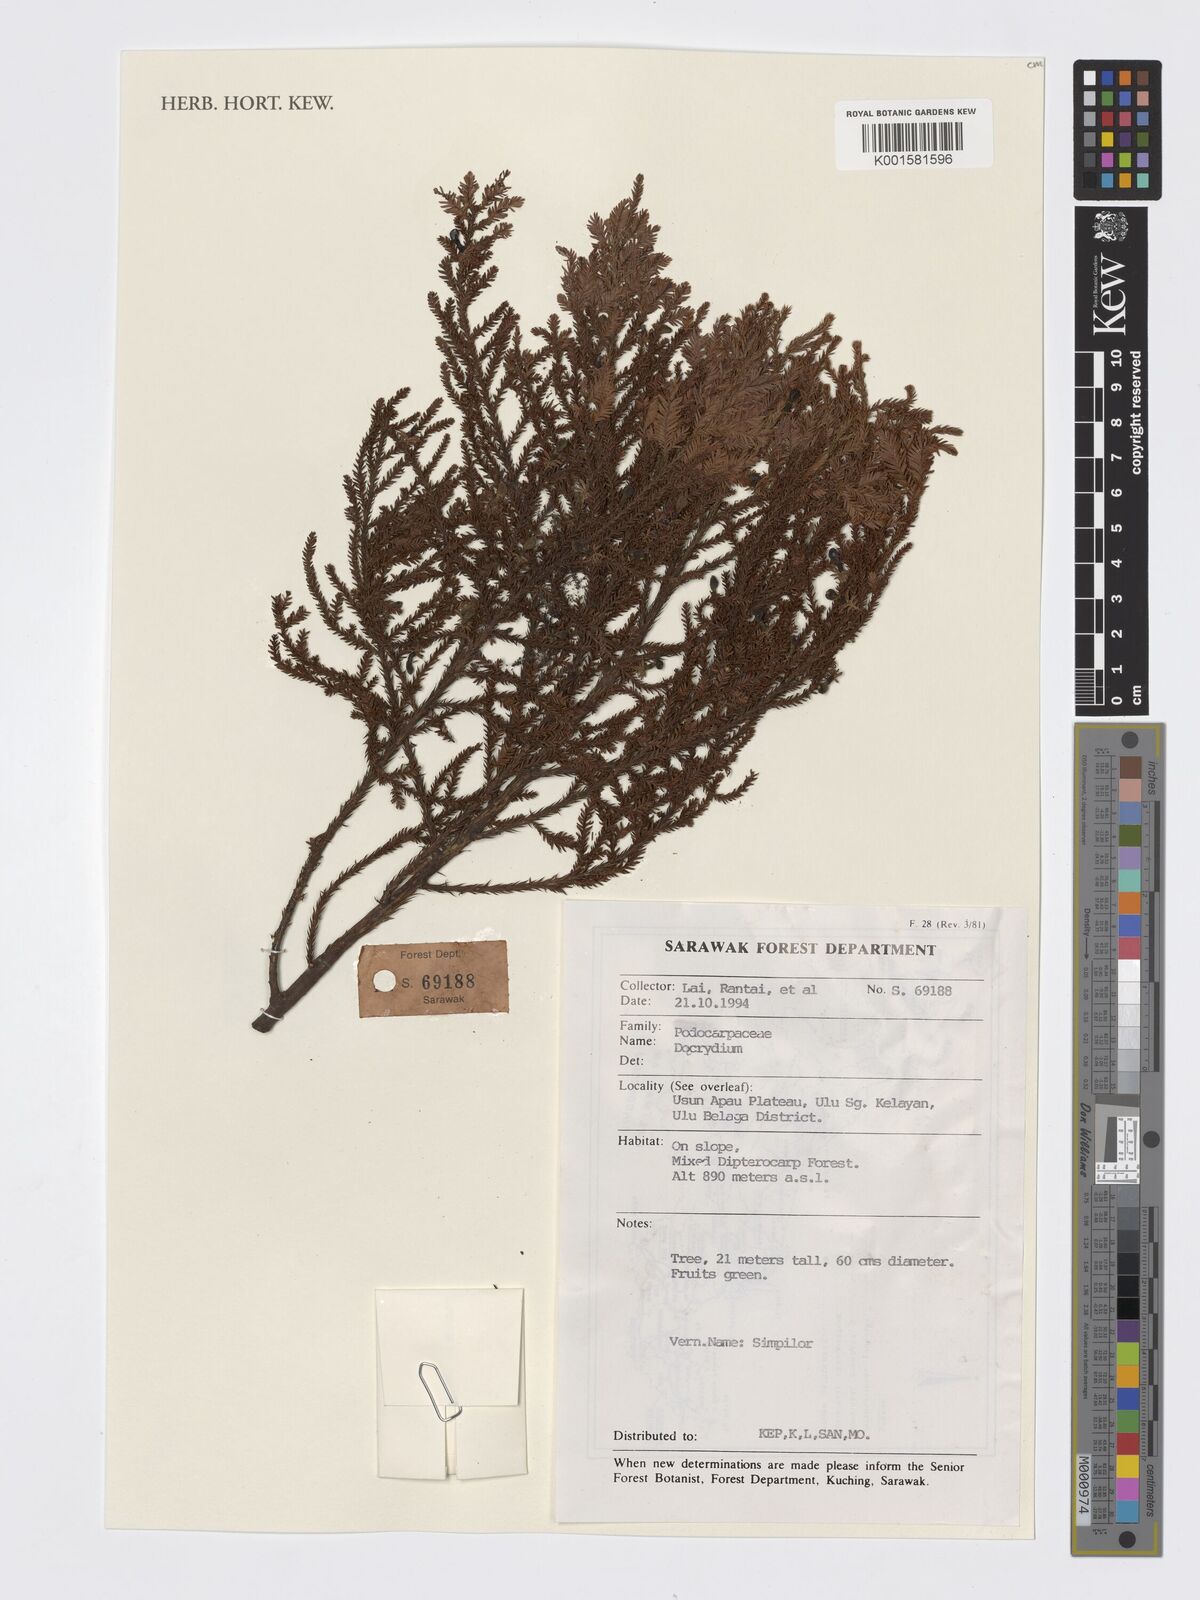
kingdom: Plantae
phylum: Tracheophyta
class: Pinopsida
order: Pinales
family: Podocarpaceae
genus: Dacrydium
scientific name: Dacrydium
